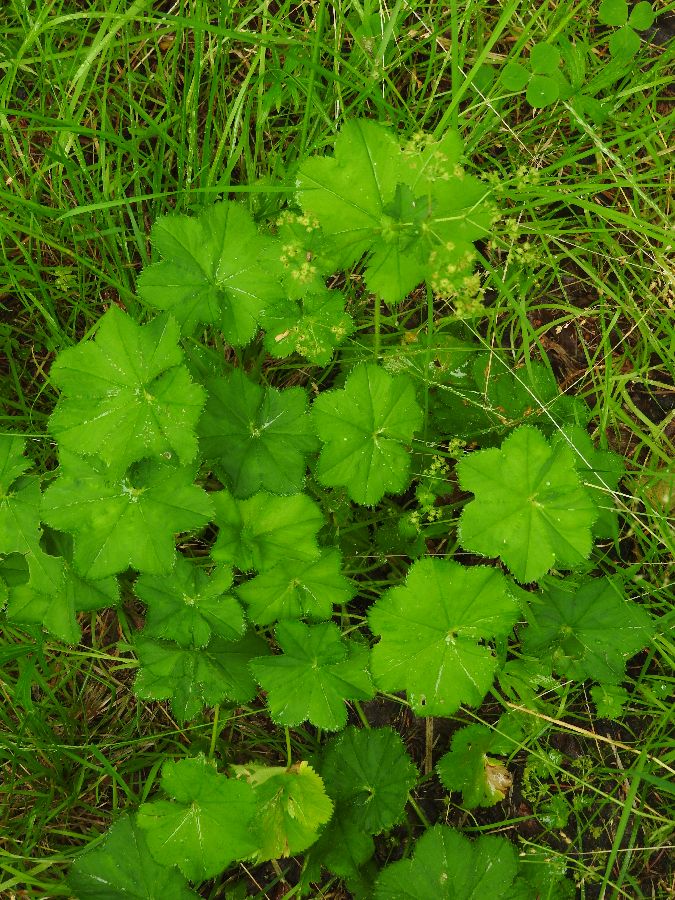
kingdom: Plantae
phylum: Tracheophyta
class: Magnoliopsida
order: Rosales
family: Rosaceae
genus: Alchemilla
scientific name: Alchemilla xanthochlora
